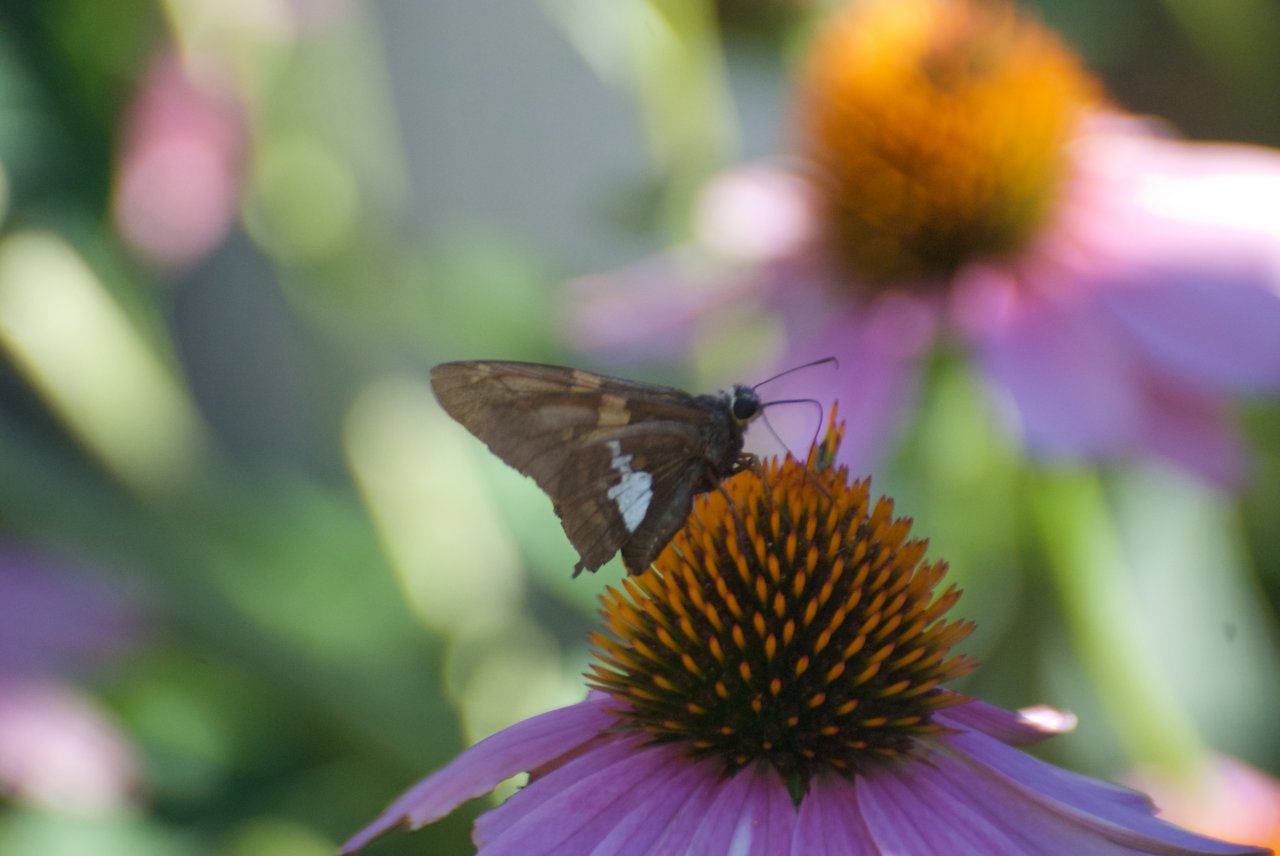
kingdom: Animalia
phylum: Arthropoda
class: Insecta
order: Lepidoptera
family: Hesperiidae
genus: Epargyreus
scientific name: Epargyreus clarus
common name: Silver-spotted Skipper
